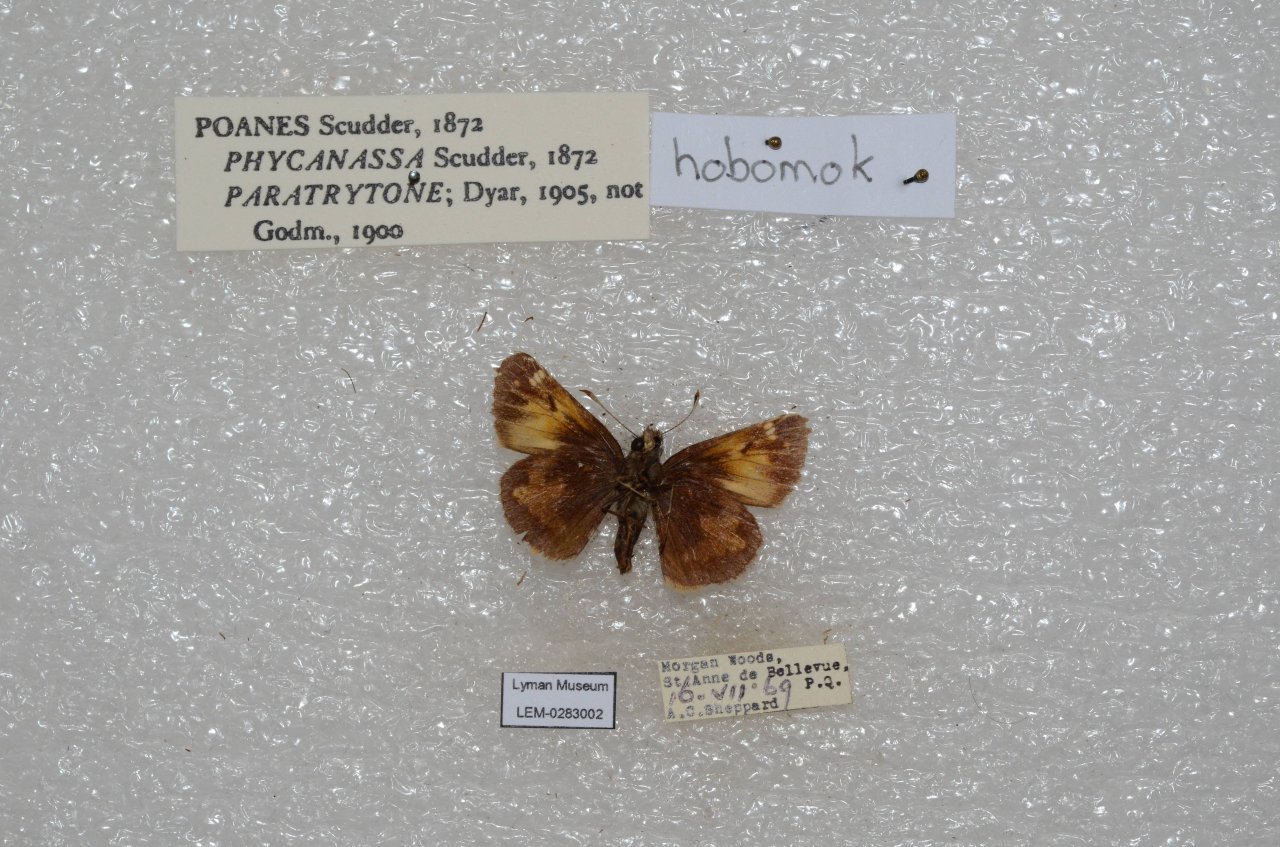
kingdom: Animalia
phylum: Arthropoda
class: Insecta
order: Lepidoptera
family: Hesperiidae
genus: Lon
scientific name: Lon hobomok
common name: Hobomok Skipper
